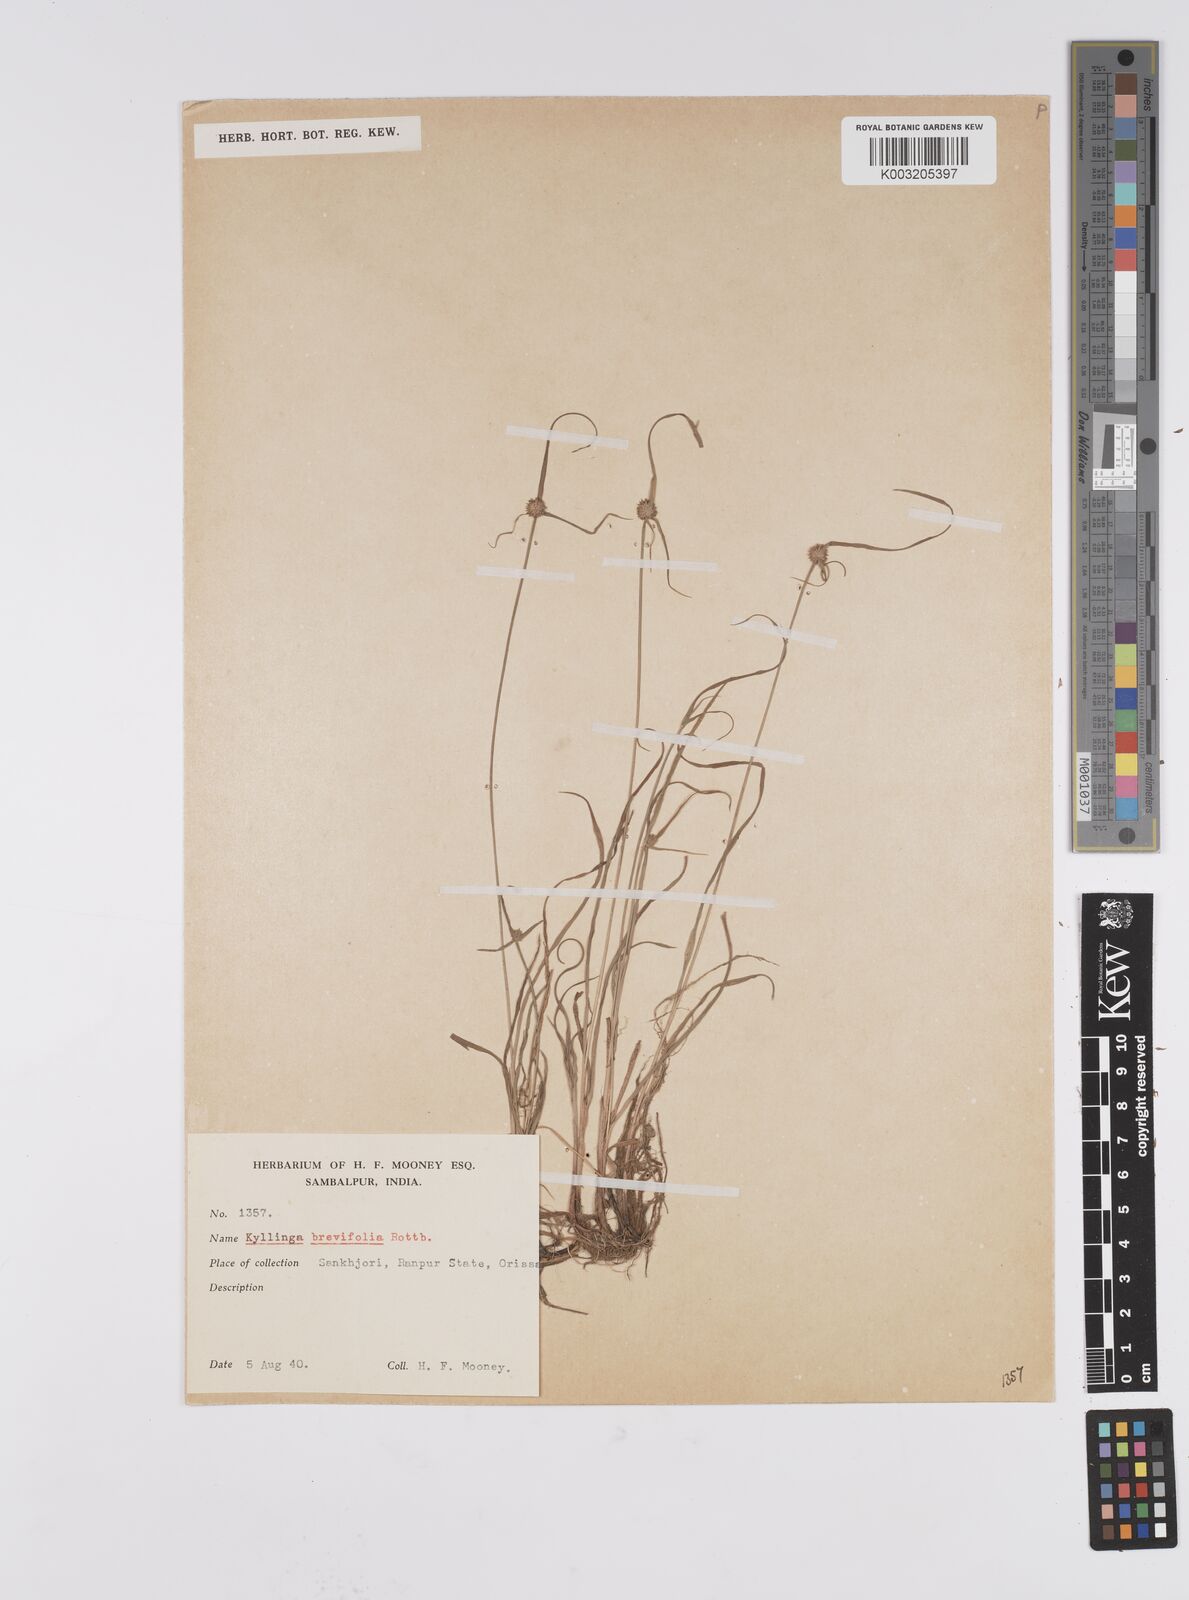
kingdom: Plantae
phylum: Tracheophyta
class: Liliopsida
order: Poales
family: Cyperaceae
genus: Cyperus
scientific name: Cyperus brevifolius
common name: Globe kyllinga
